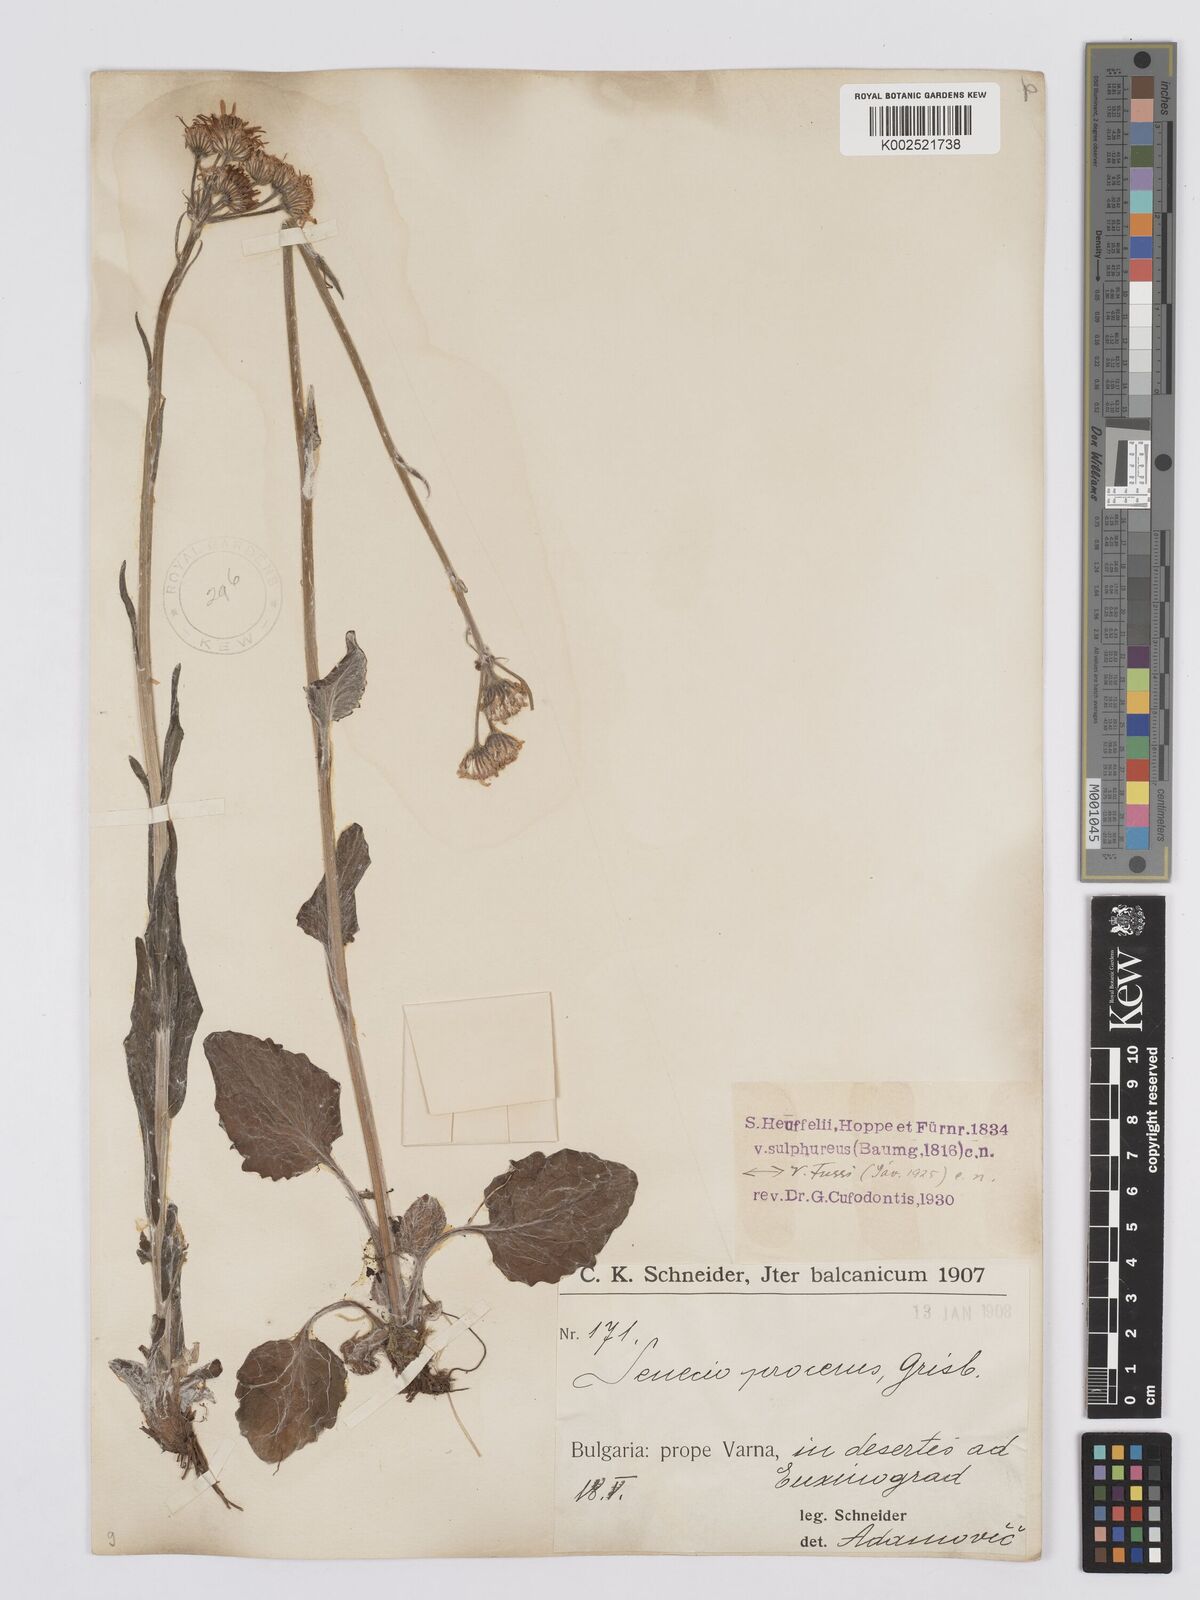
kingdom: Plantae
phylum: Tracheophyta
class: Magnoliopsida
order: Asterales
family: Asteraceae
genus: Tephroseris
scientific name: Tephroseris papposa
